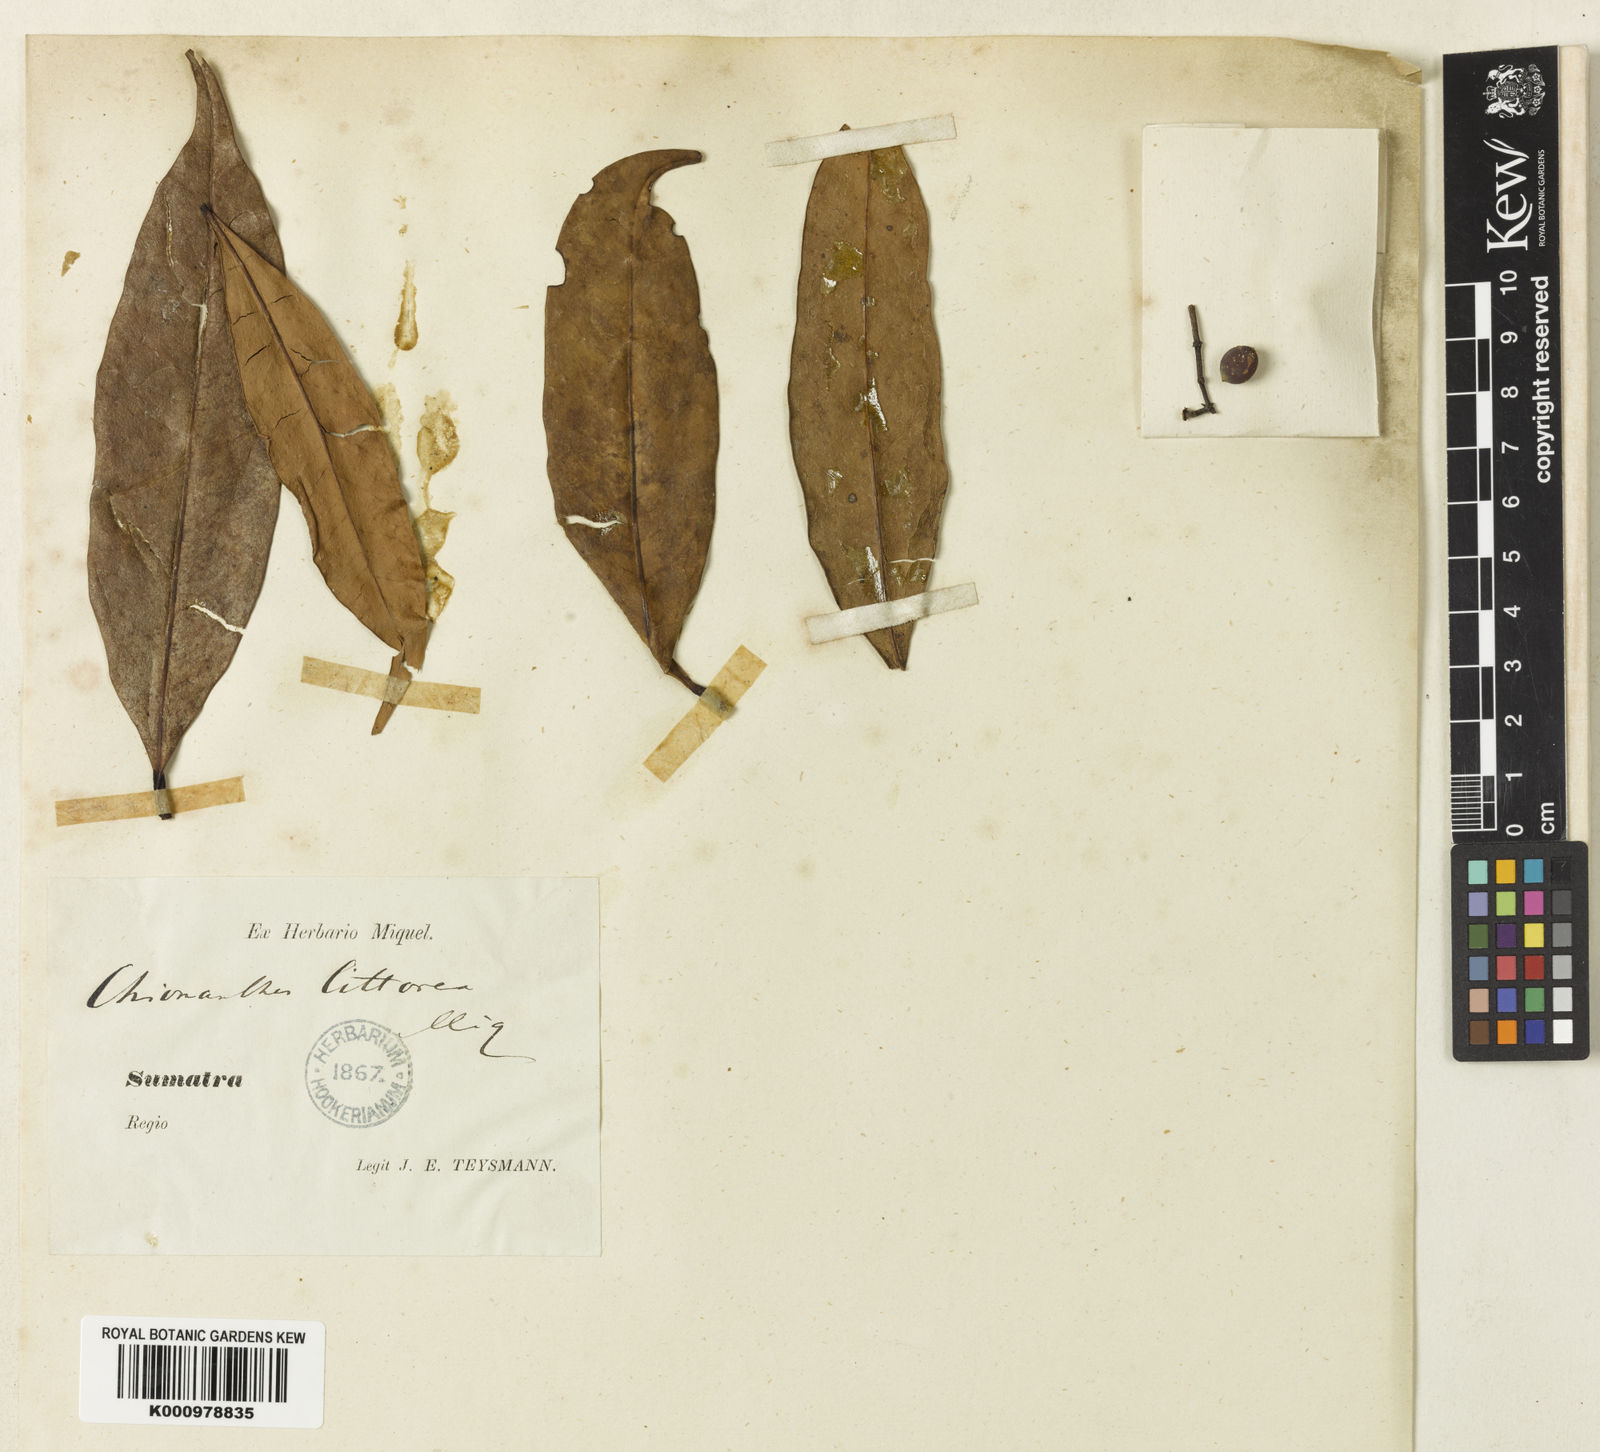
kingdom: Plantae
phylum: Tracheophyta
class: Magnoliopsida
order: Lamiales
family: Oleaceae
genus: Chionanthus
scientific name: Chionanthus littoreus
